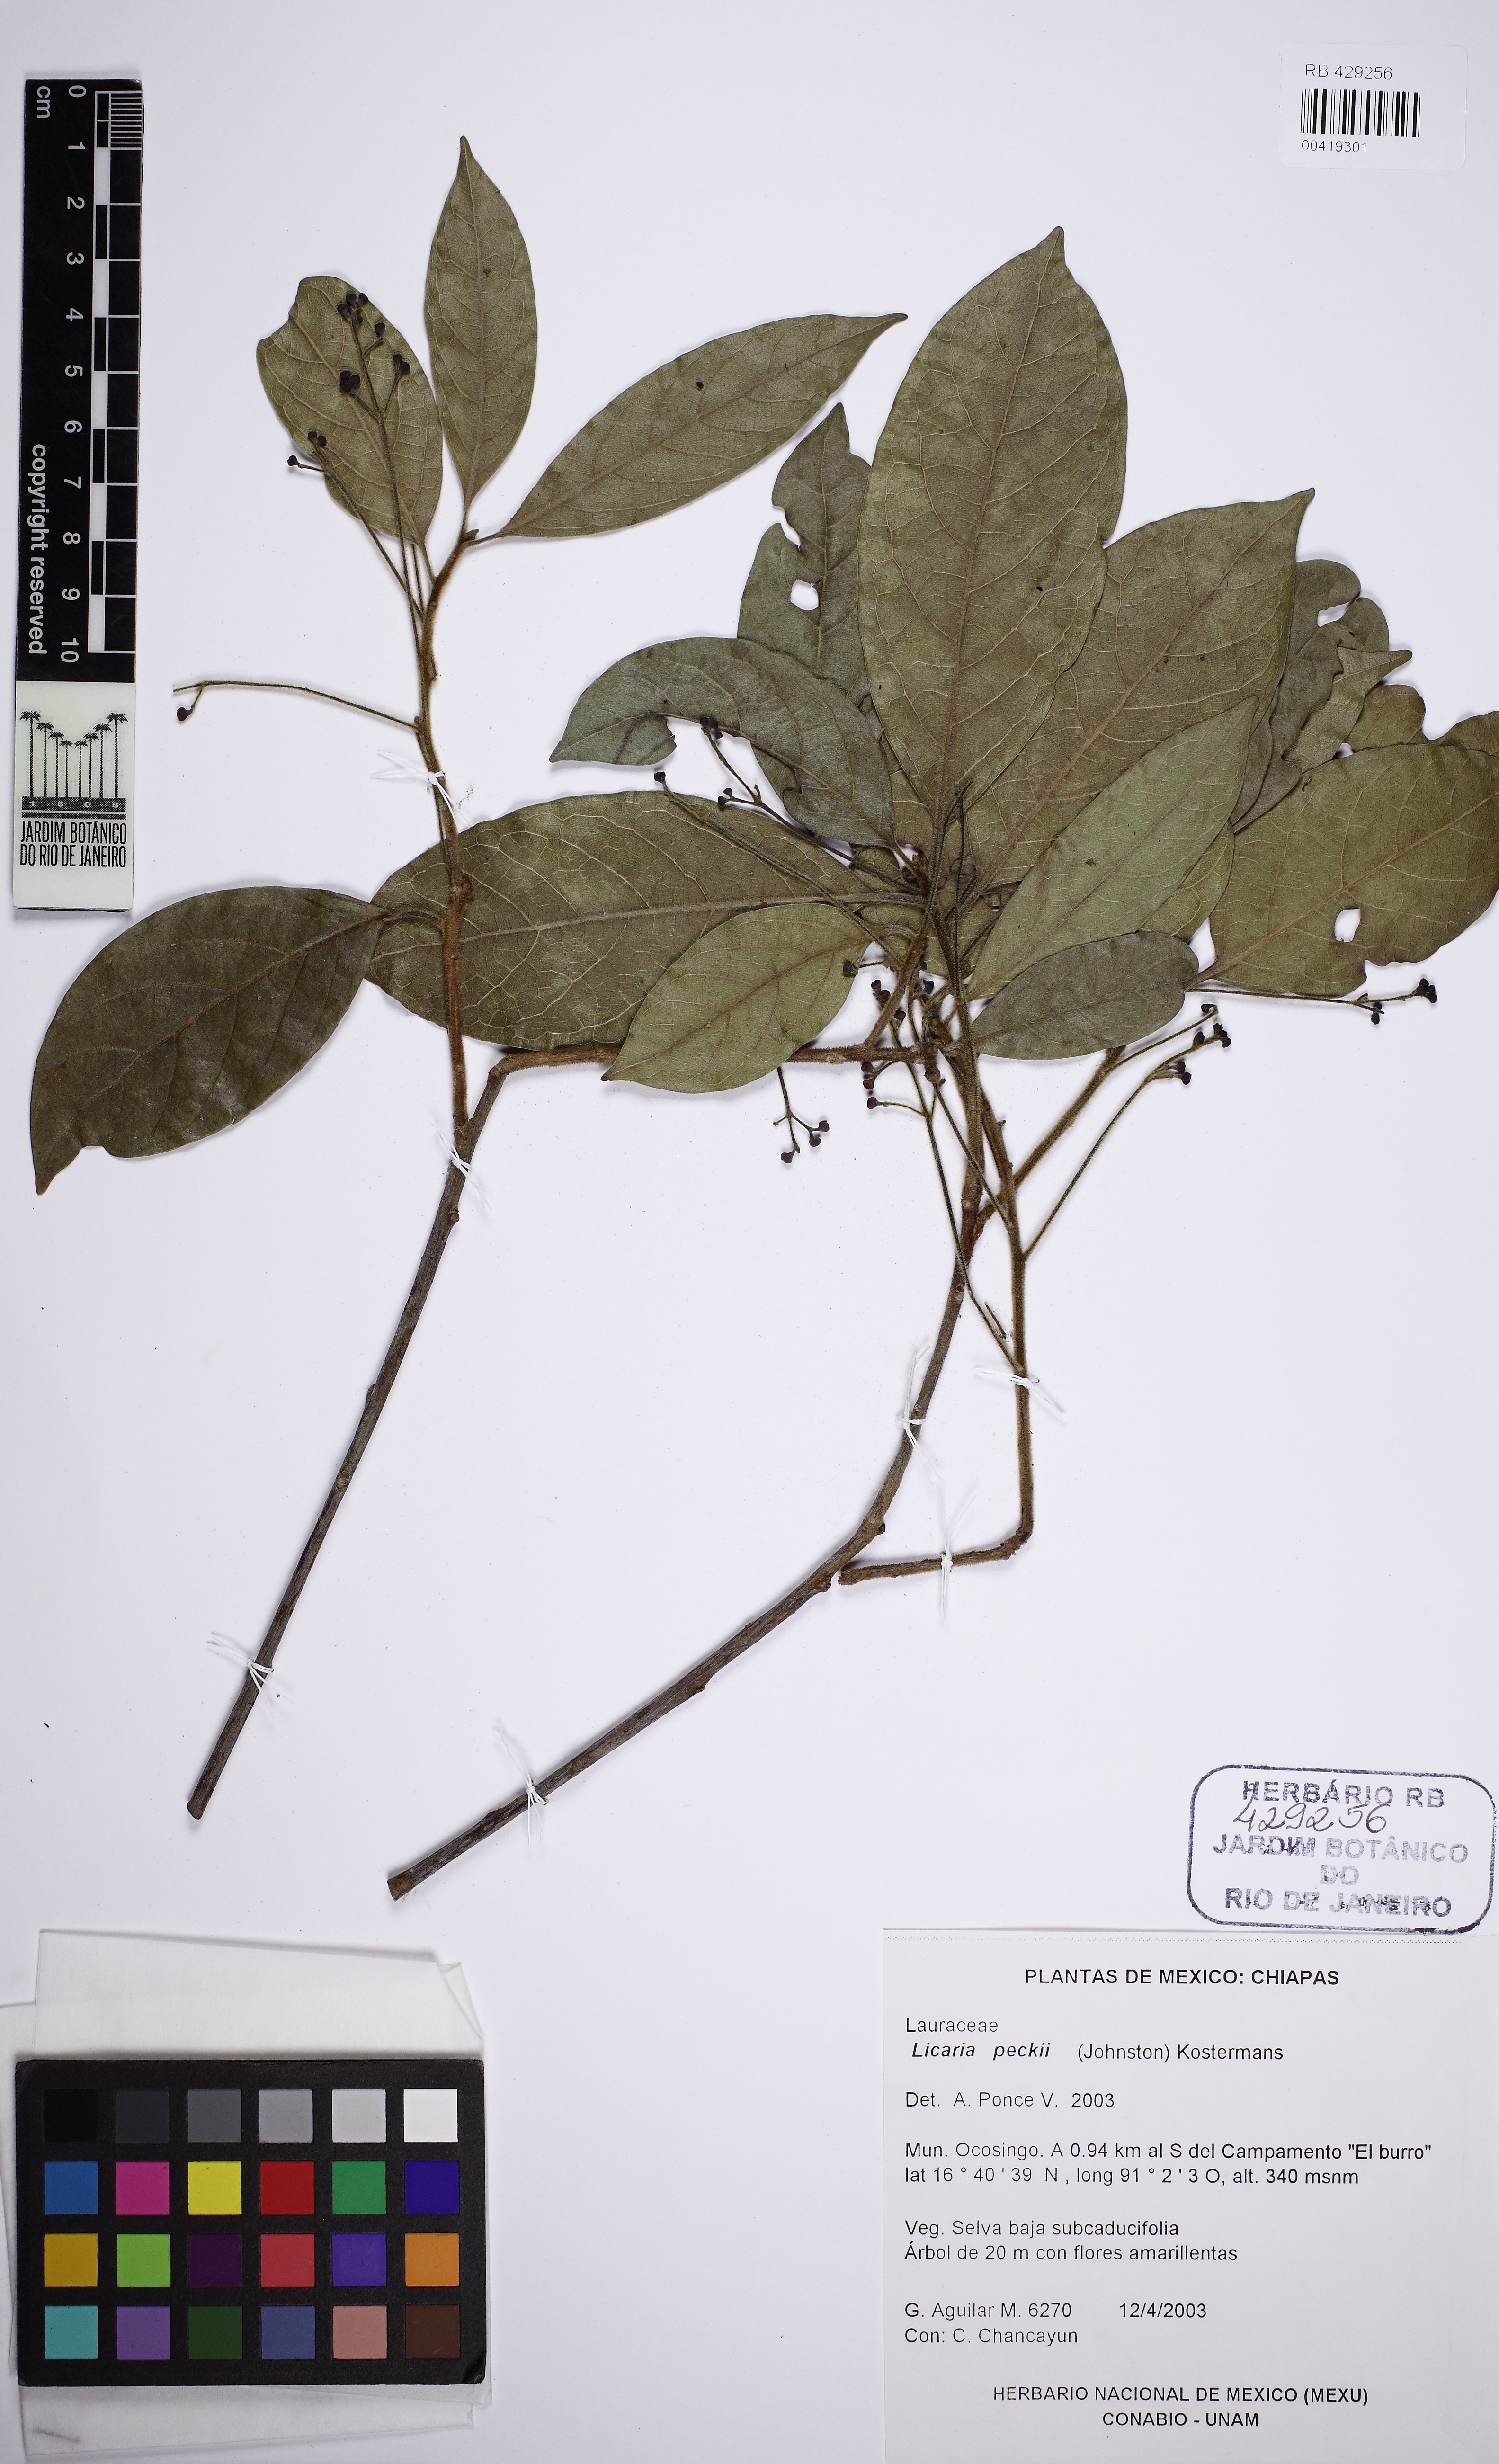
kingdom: Plantae
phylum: Tracheophyta
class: Magnoliopsida
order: Laurales
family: Lauraceae
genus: Licaria
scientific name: Licaria peckii
